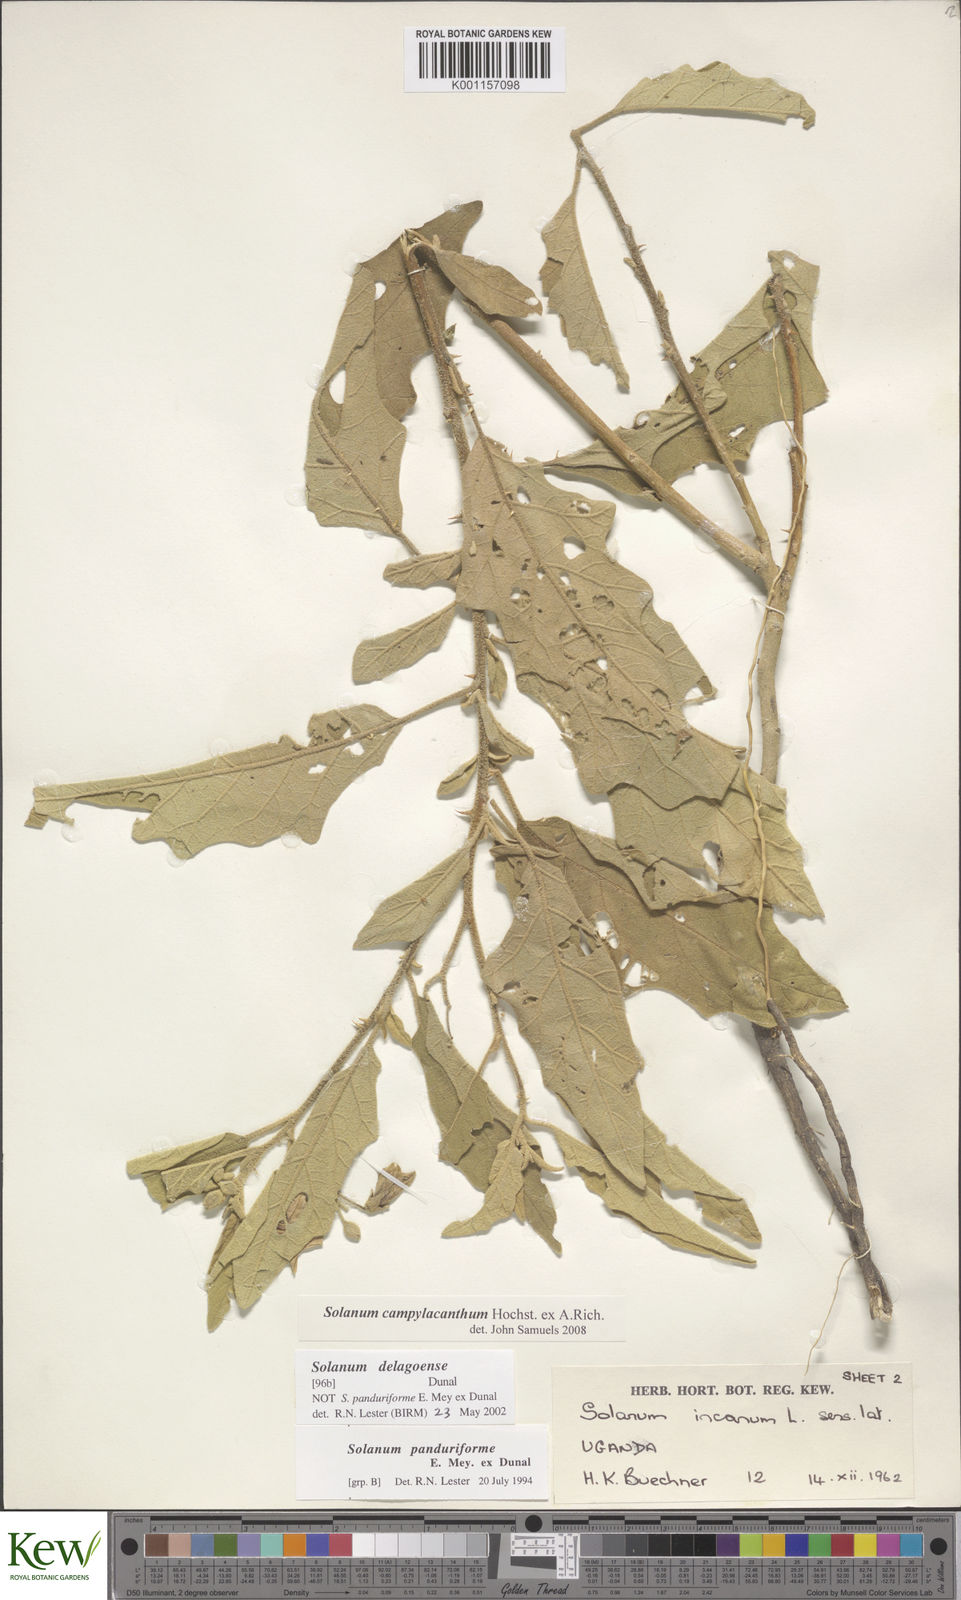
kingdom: Plantae
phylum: Tracheophyta
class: Magnoliopsida
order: Solanales
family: Solanaceae
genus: Solanum
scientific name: Solanum campylacanthum
